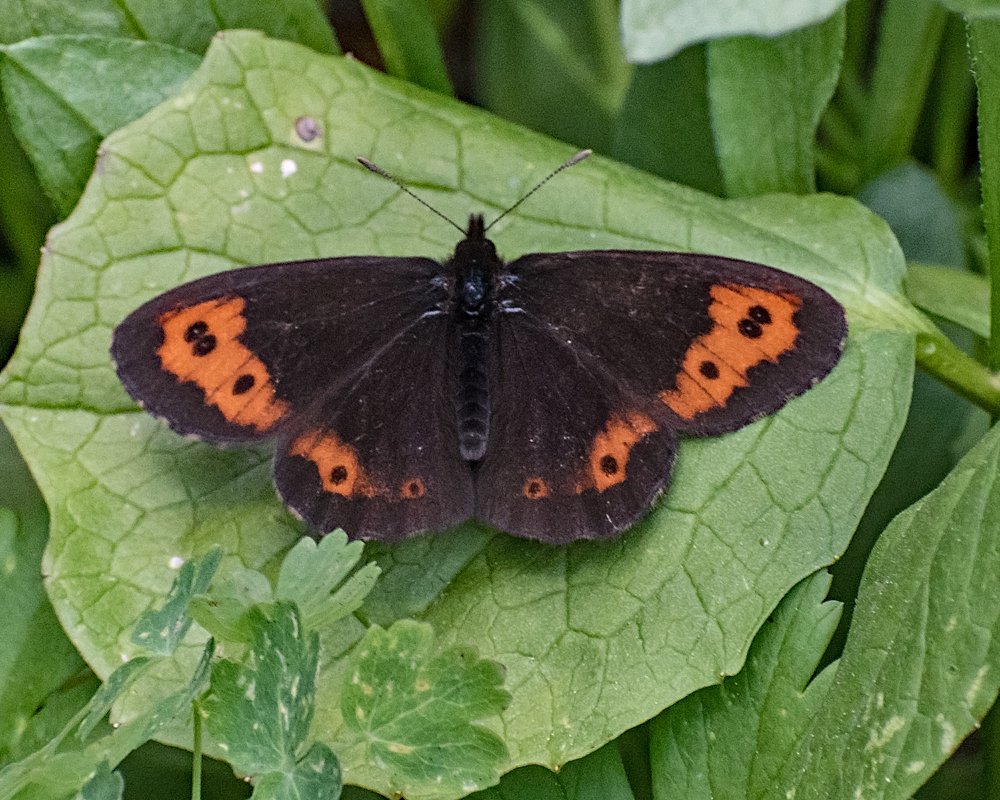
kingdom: Animalia
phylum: Arthropoda
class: Insecta
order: Lepidoptera
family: Nymphalidae
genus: Erebia
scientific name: Erebia vidleri
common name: Vidler's Alpine
